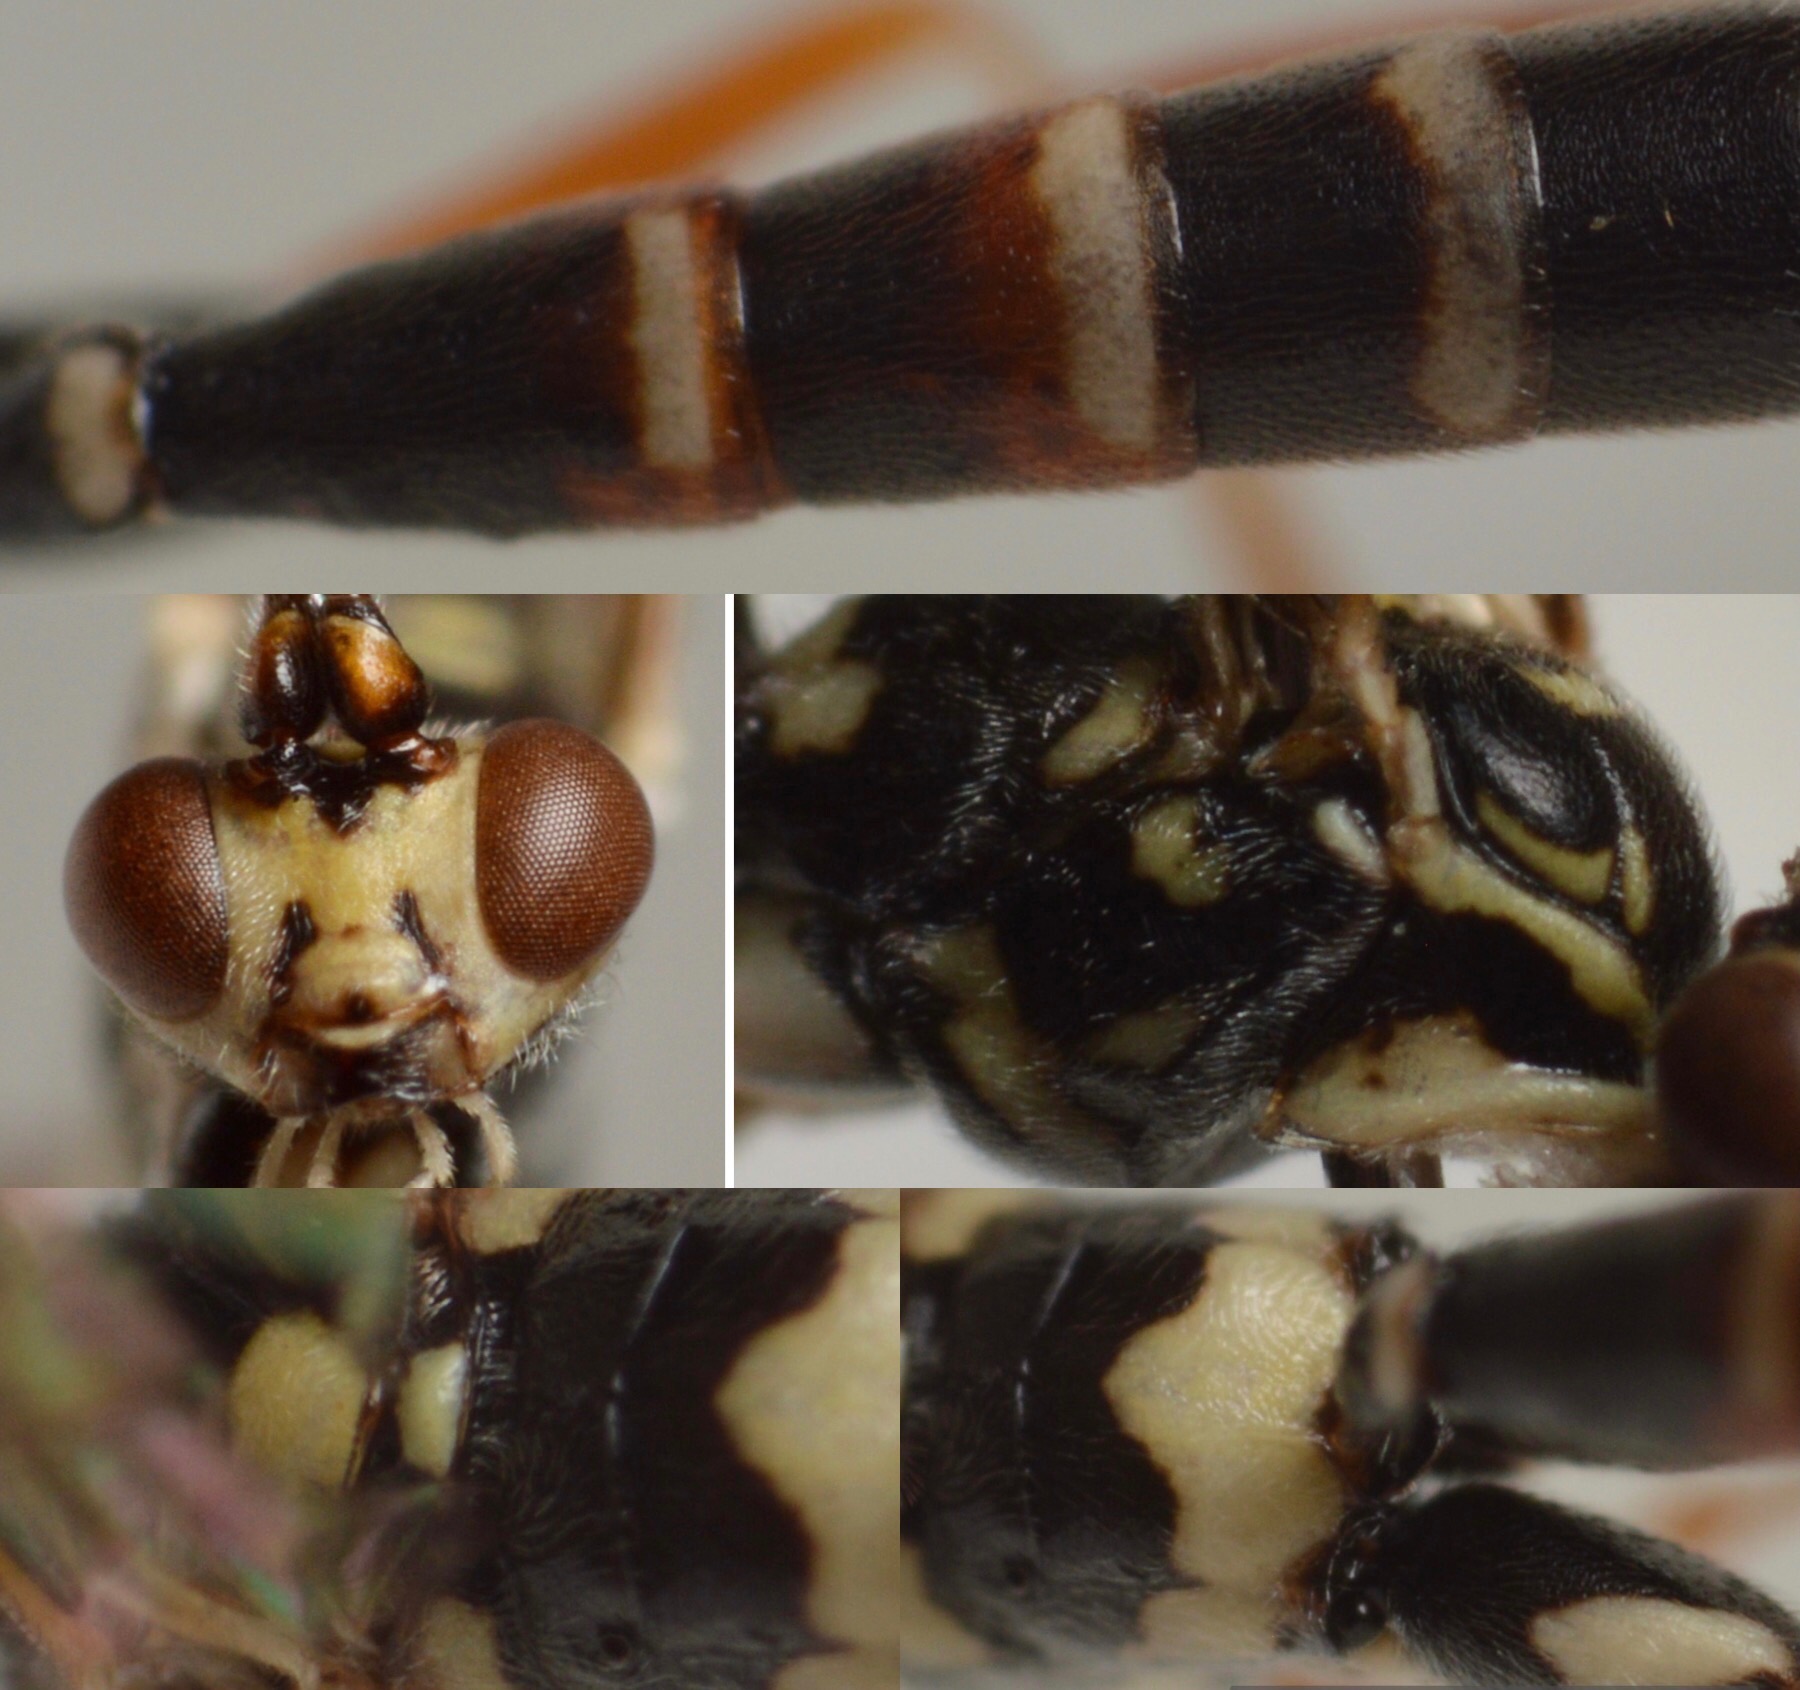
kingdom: Animalia
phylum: Arthropoda
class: Insecta
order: Hymenoptera
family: Ichneumonidae
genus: Ischnus
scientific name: Ischnus inquisitorius
